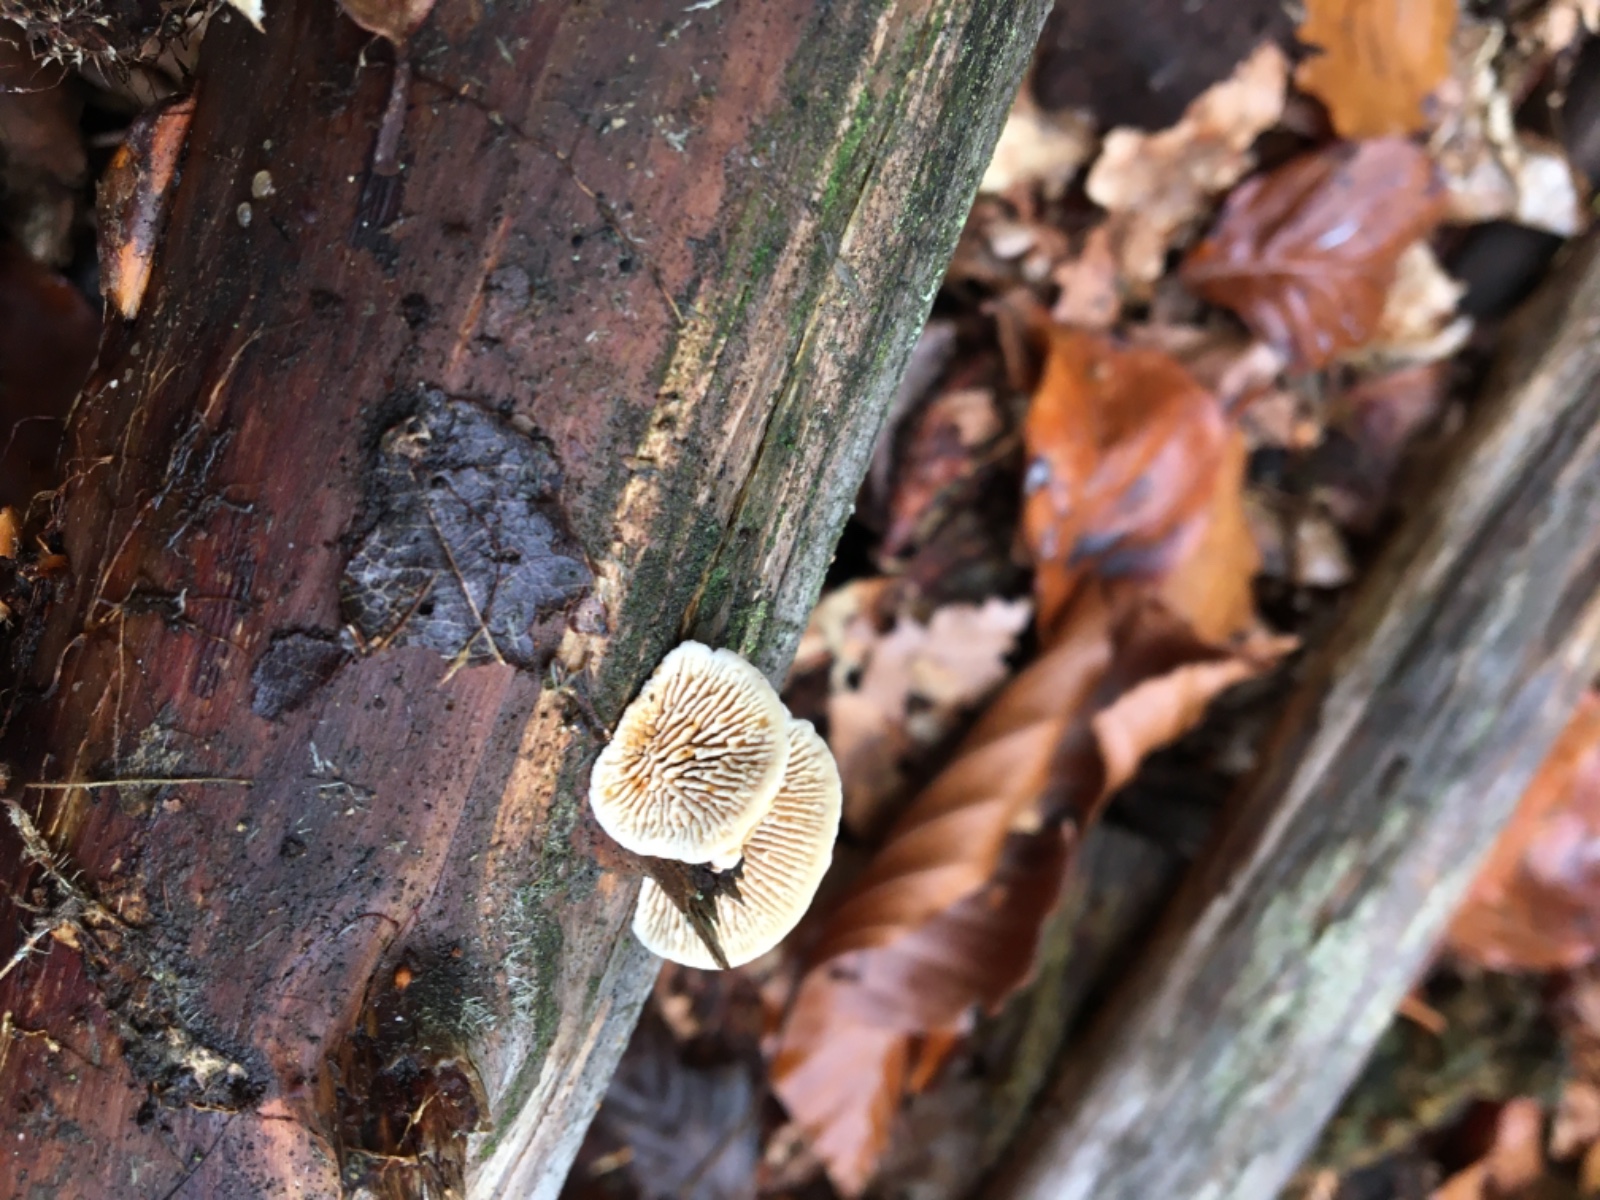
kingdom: Fungi
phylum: Basidiomycota
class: Agaricomycetes
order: Gloeophyllales
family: Gloeophyllaceae
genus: Gloeophyllum
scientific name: Gloeophyllum sepiarium
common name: fyrre-korkhat
